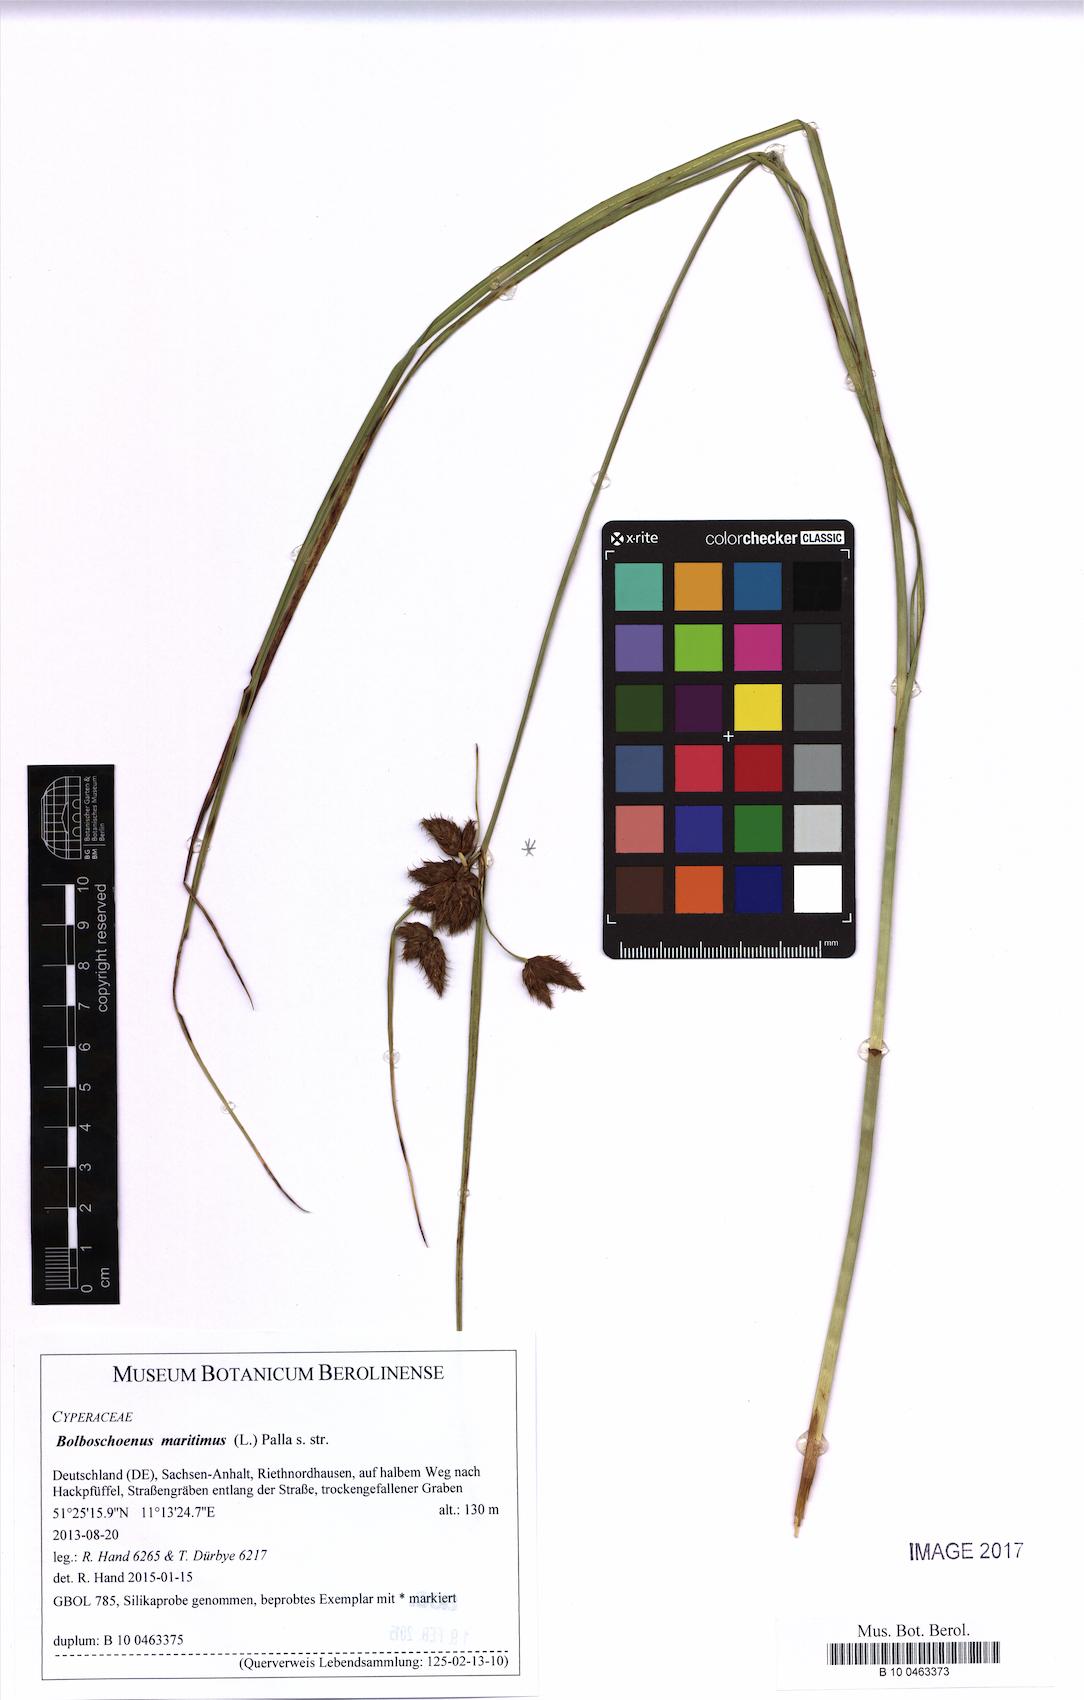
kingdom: Plantae
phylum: Tracheophyta
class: Liliopsida
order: Poales
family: Cyperaceae
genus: Bolboschoenus
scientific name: Bolboschoenus maritimus
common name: Sea club-rush
